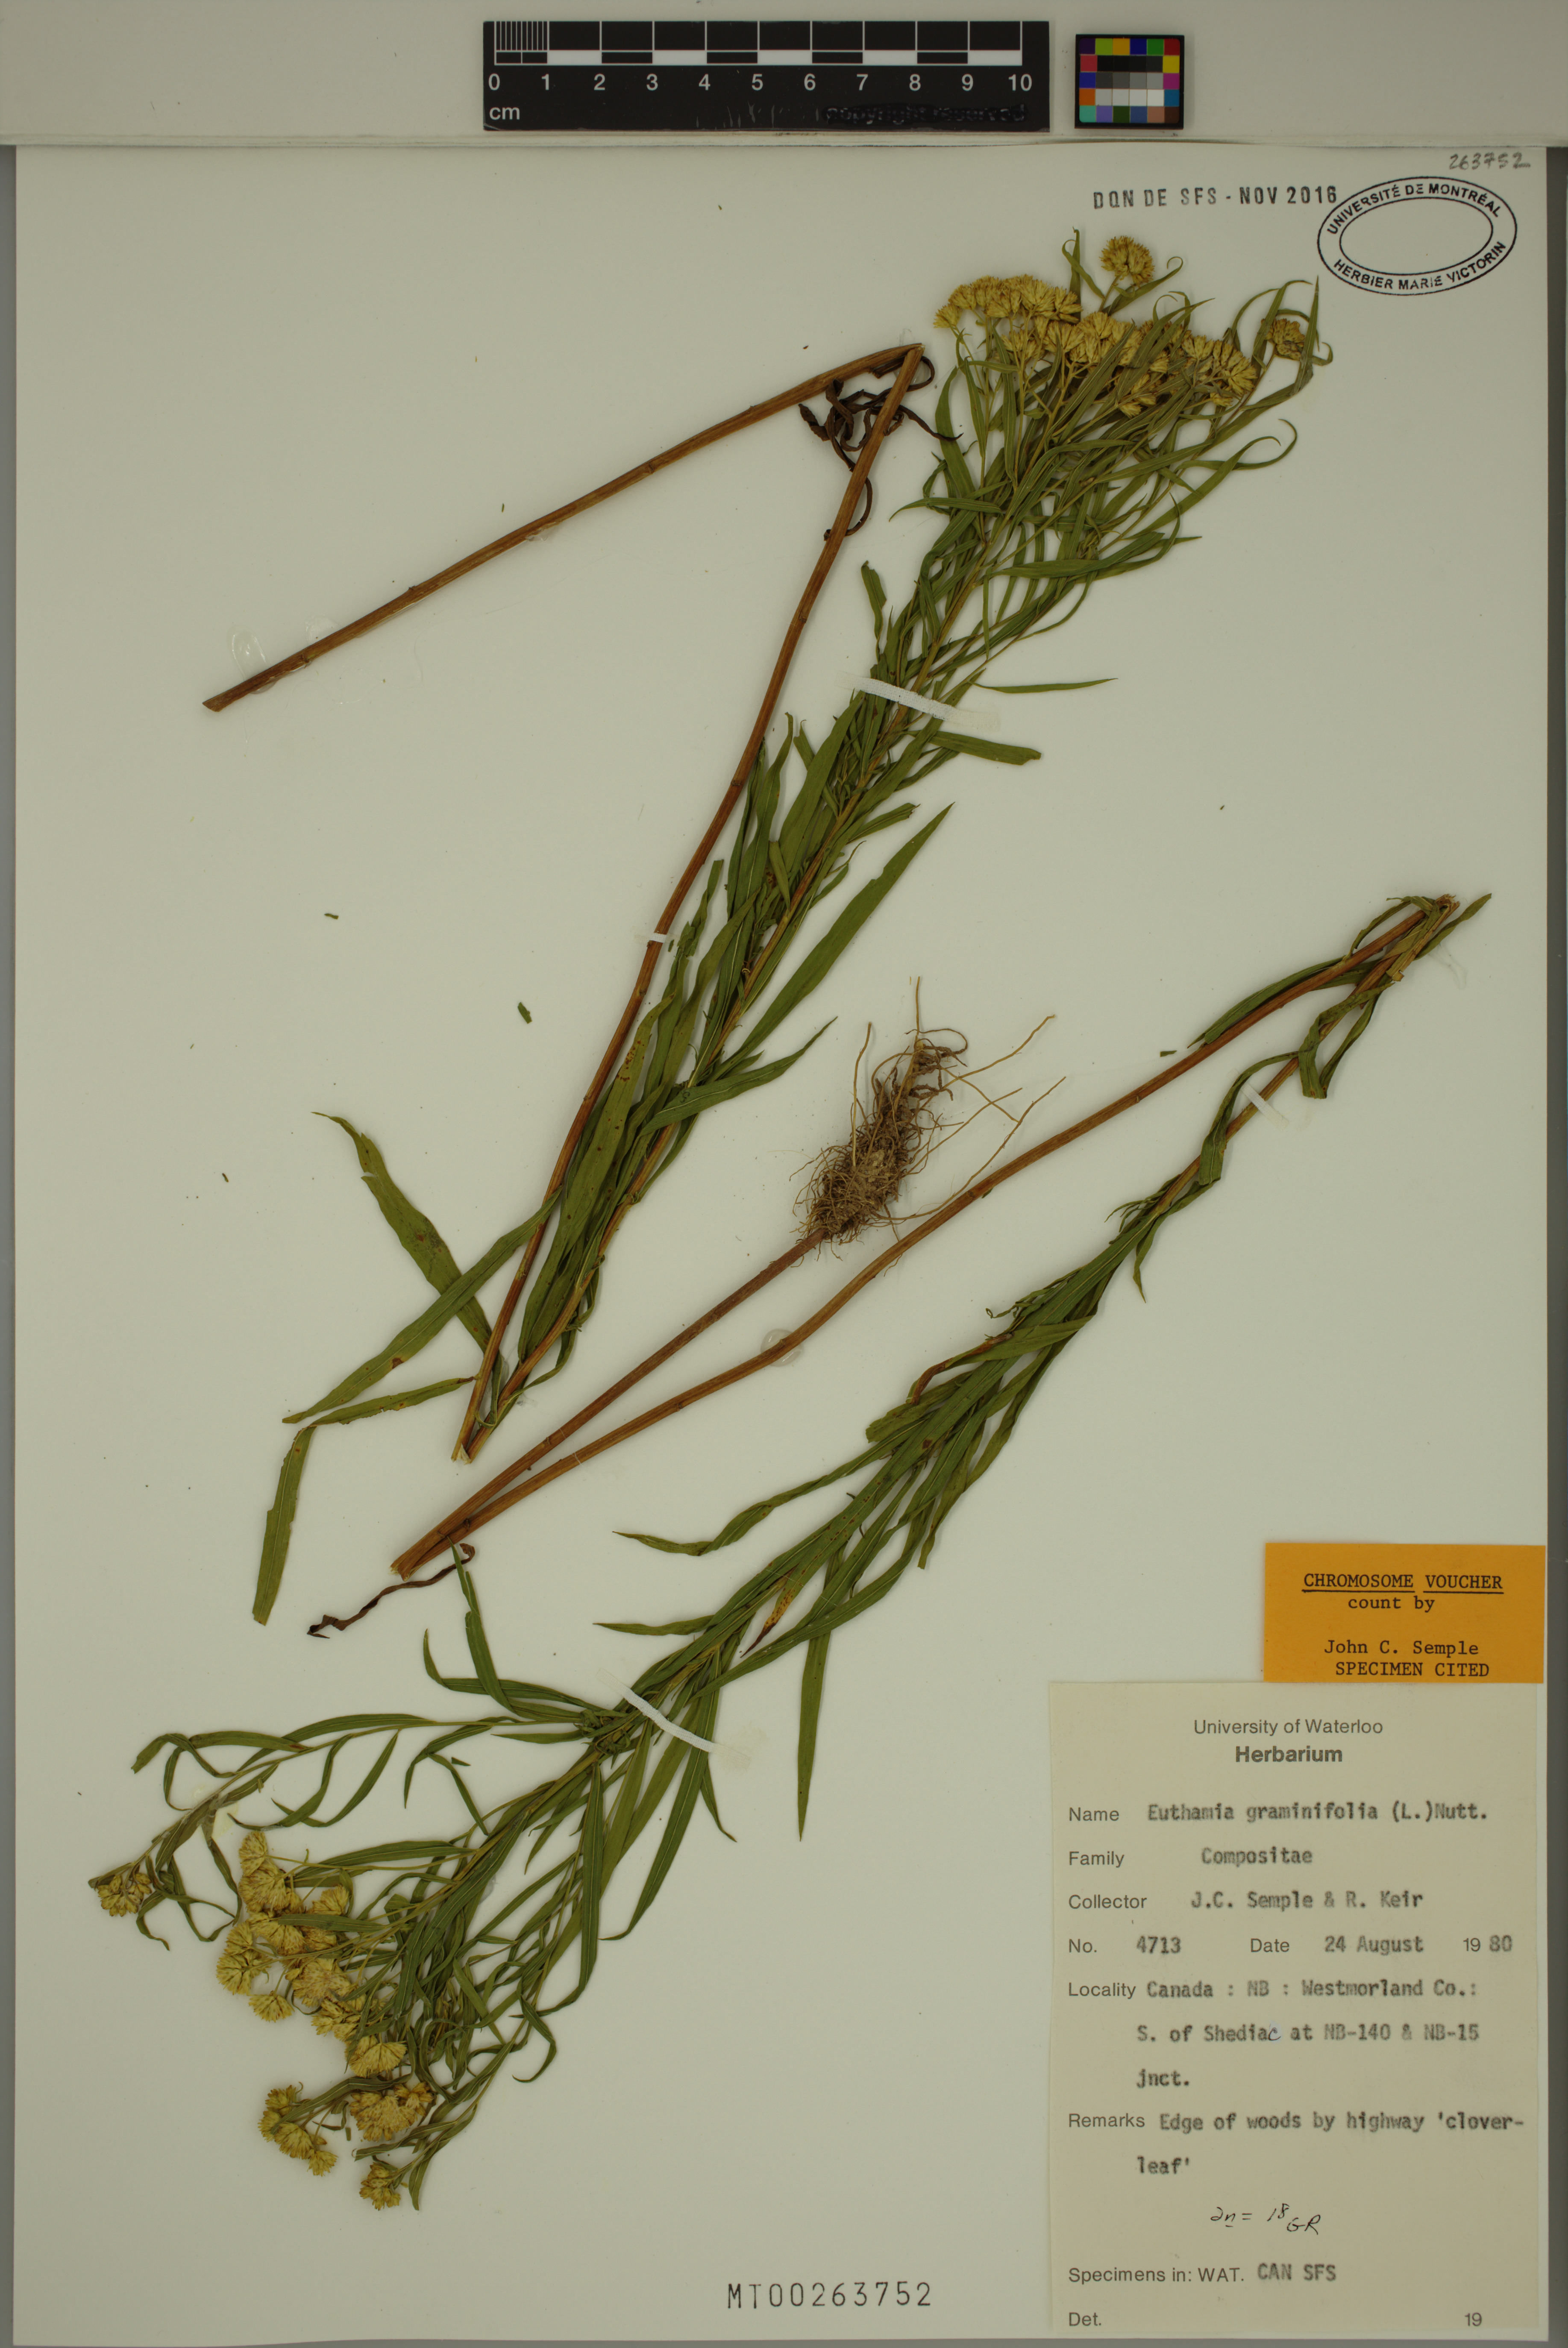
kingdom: Plantae
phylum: Tracheophyta
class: Magnoliopsida
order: Asterales
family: Asteraceae
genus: Euthamia
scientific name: Euthamia graminifolia
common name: Common goldentop
